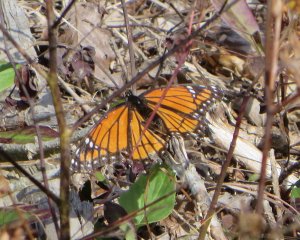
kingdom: Animalia
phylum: Arthropoda
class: Insecta
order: Lepidoptera
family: Nymphalidae
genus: Limenitis
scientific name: Limenitis archippus
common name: Viceroy
